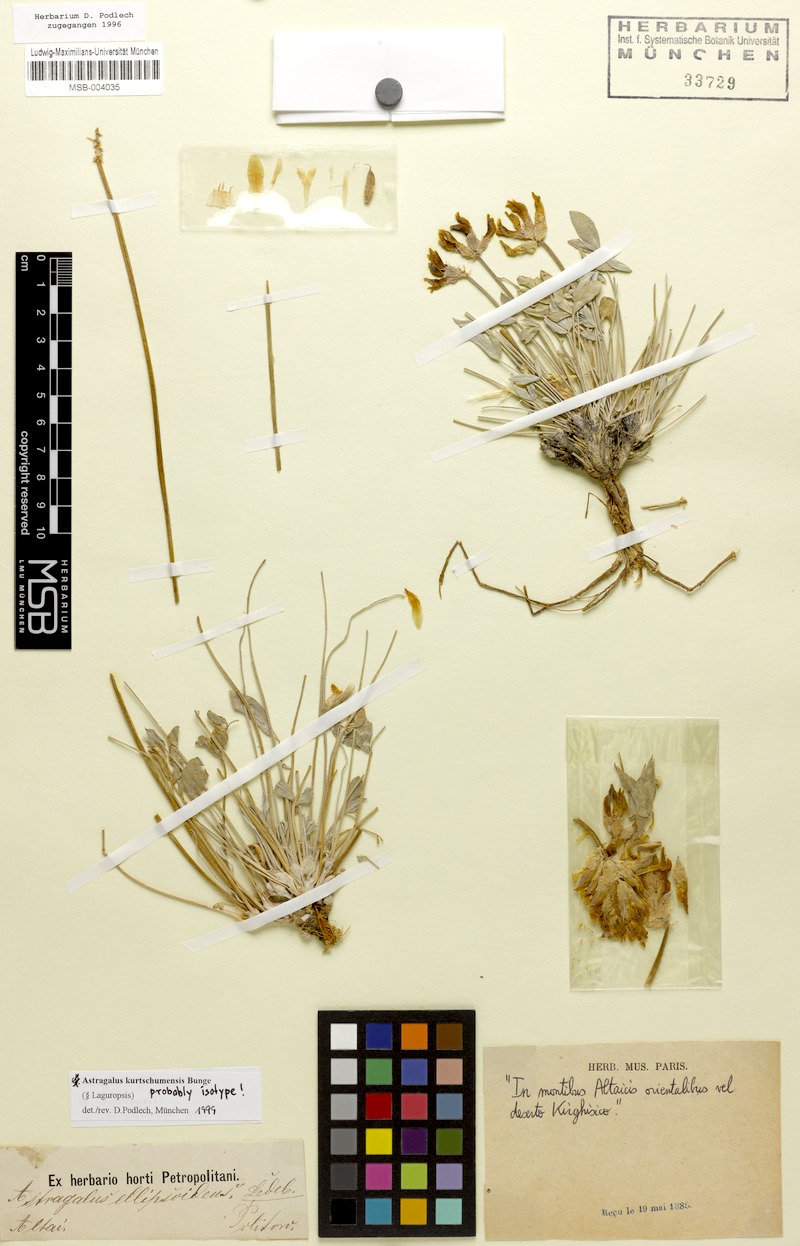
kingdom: Plantae
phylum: Tracheophyta
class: Magnoliopsida
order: Fabales
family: Fabaceae
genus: Astragalus
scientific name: Astragalus kurtschumensis
